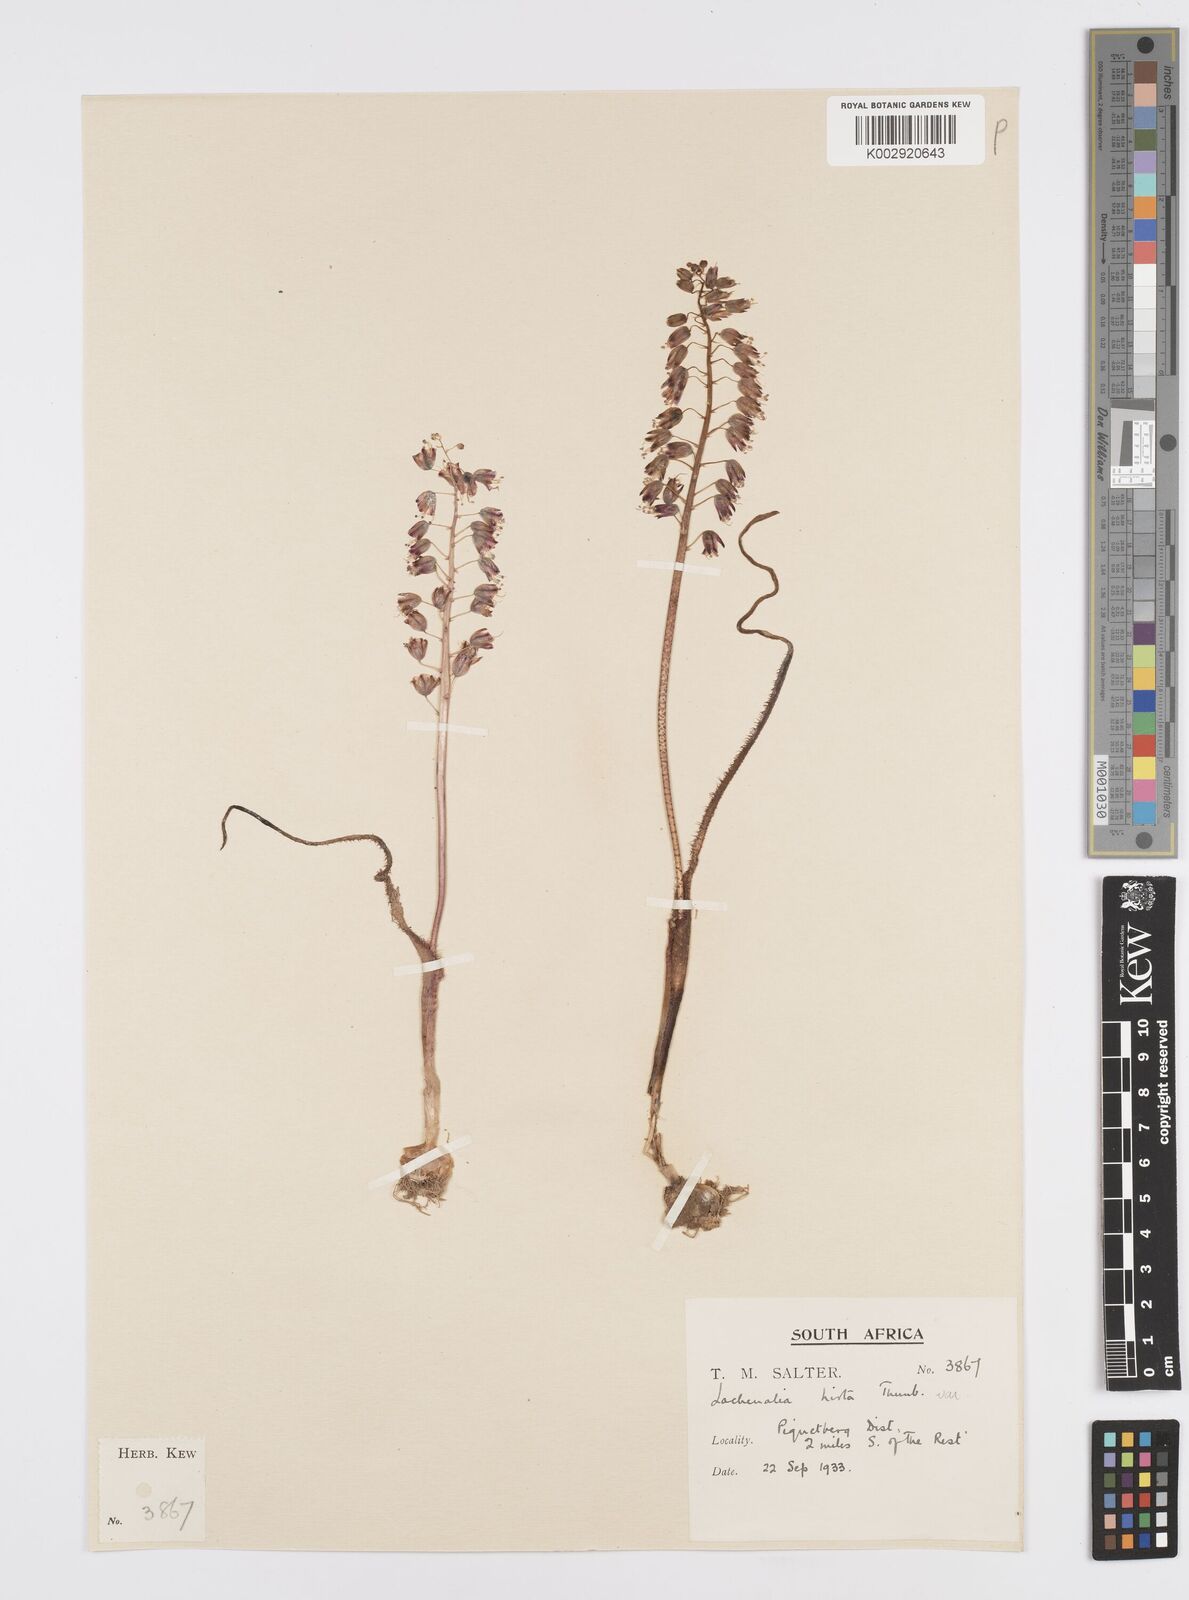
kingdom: Plantae
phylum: Tracheophyta
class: Liliopsida
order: Asparagales
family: Asparagaceae
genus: Lachenalia
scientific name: Lachenalia hirta
